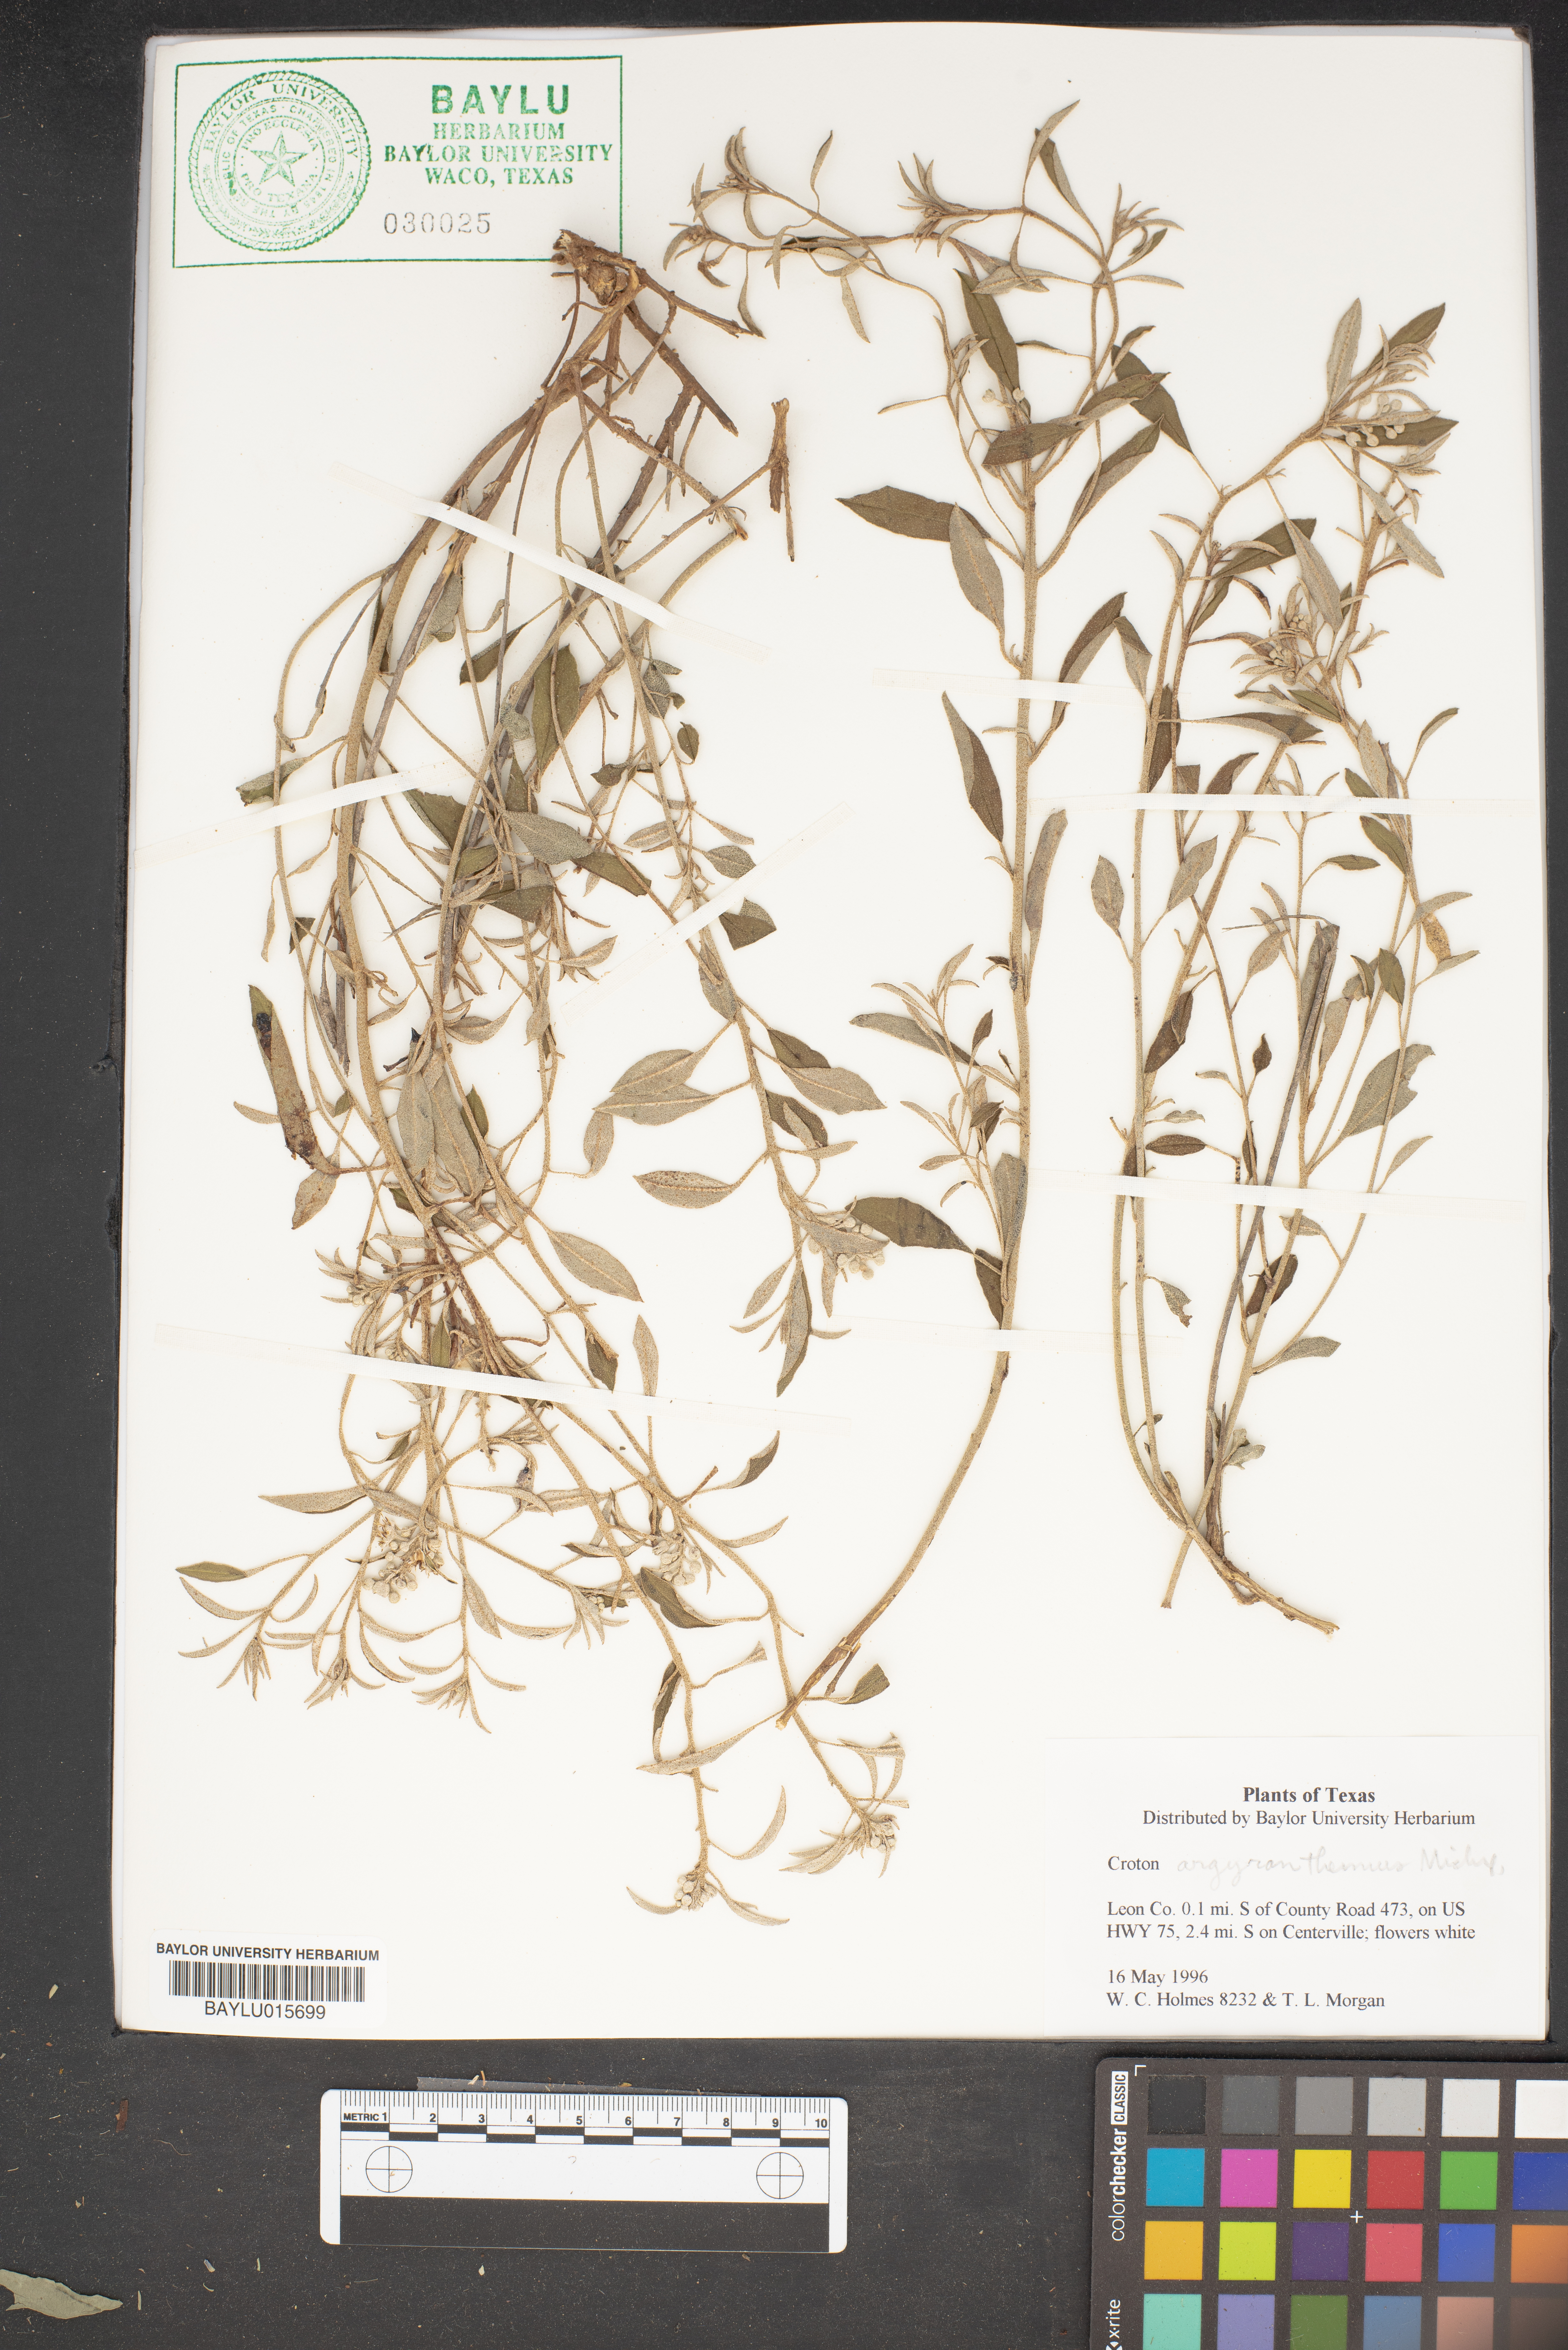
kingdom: Plantae
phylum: Tracheophyta
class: Magnoliopsida
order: Malpighiales
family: Euphorbiaceae
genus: Croton
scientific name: Croton argyranthemus
